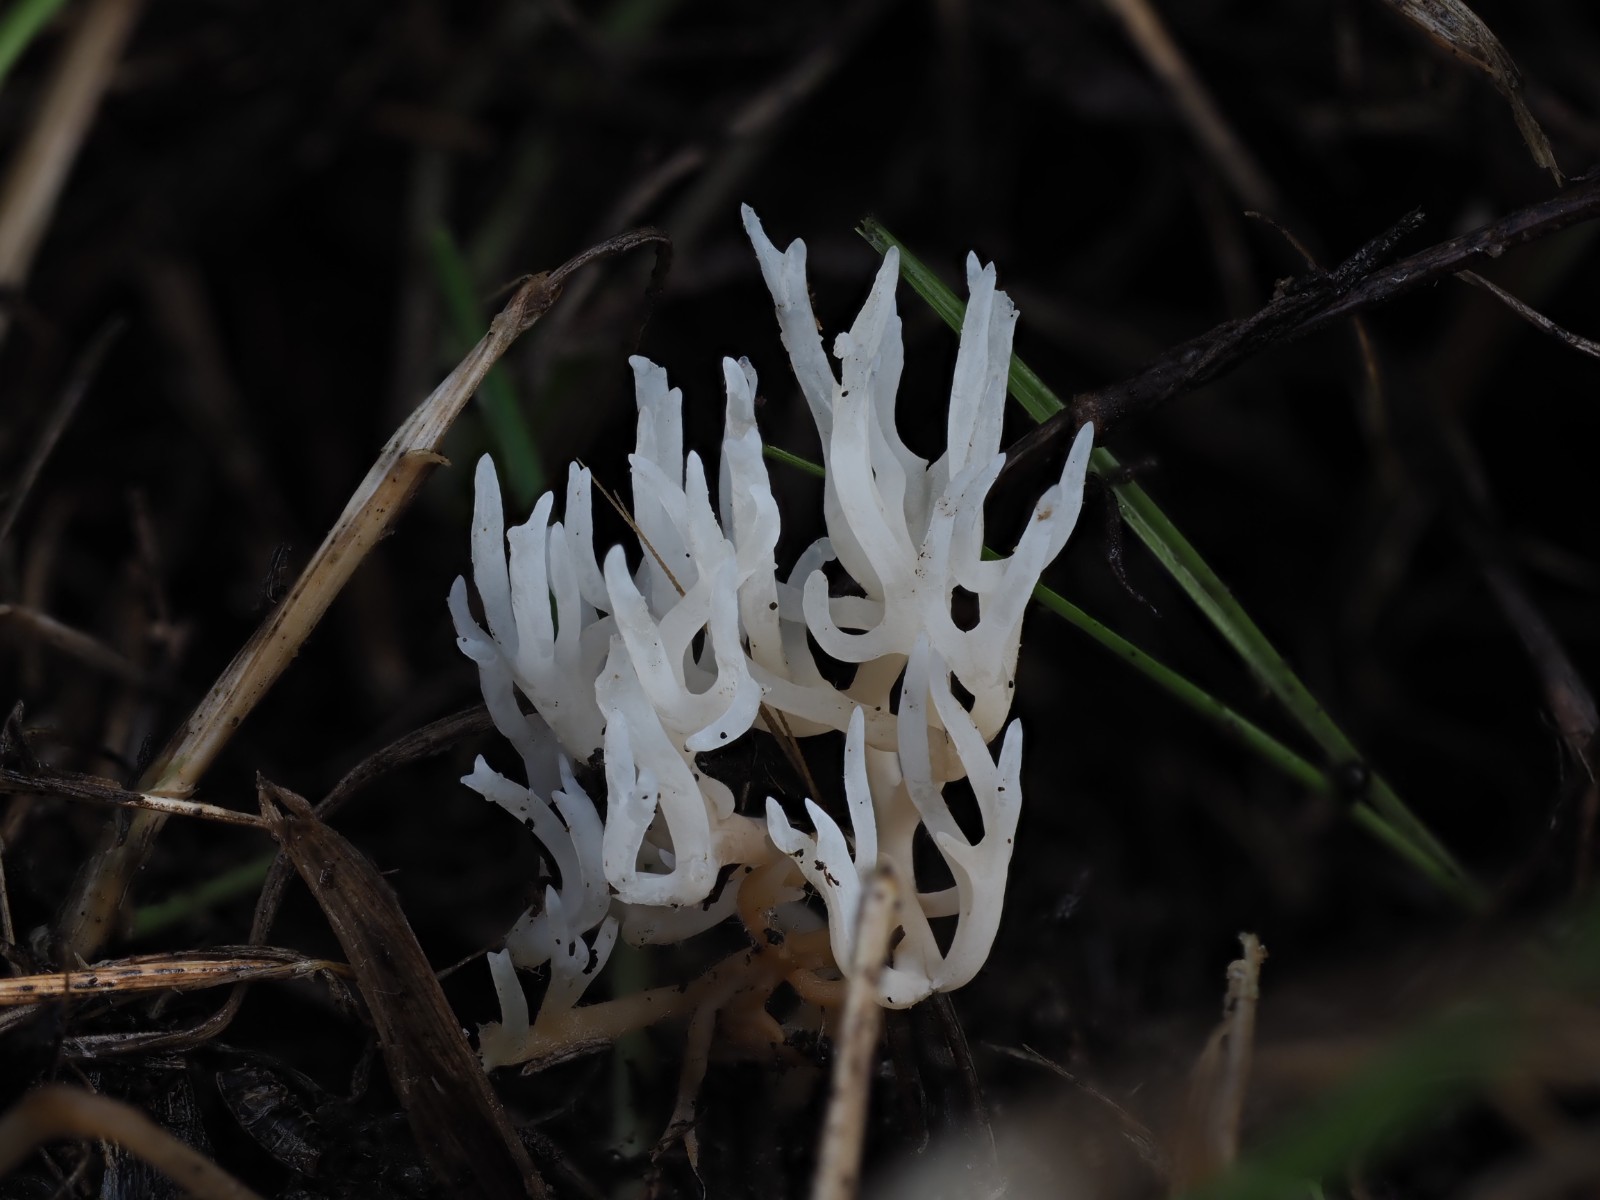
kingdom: Fungi
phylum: Basidiomycota
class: Agaricomycetes
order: Agaricales
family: Clavariaceae
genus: Ramariopsis
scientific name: Ramariopsis bispora
